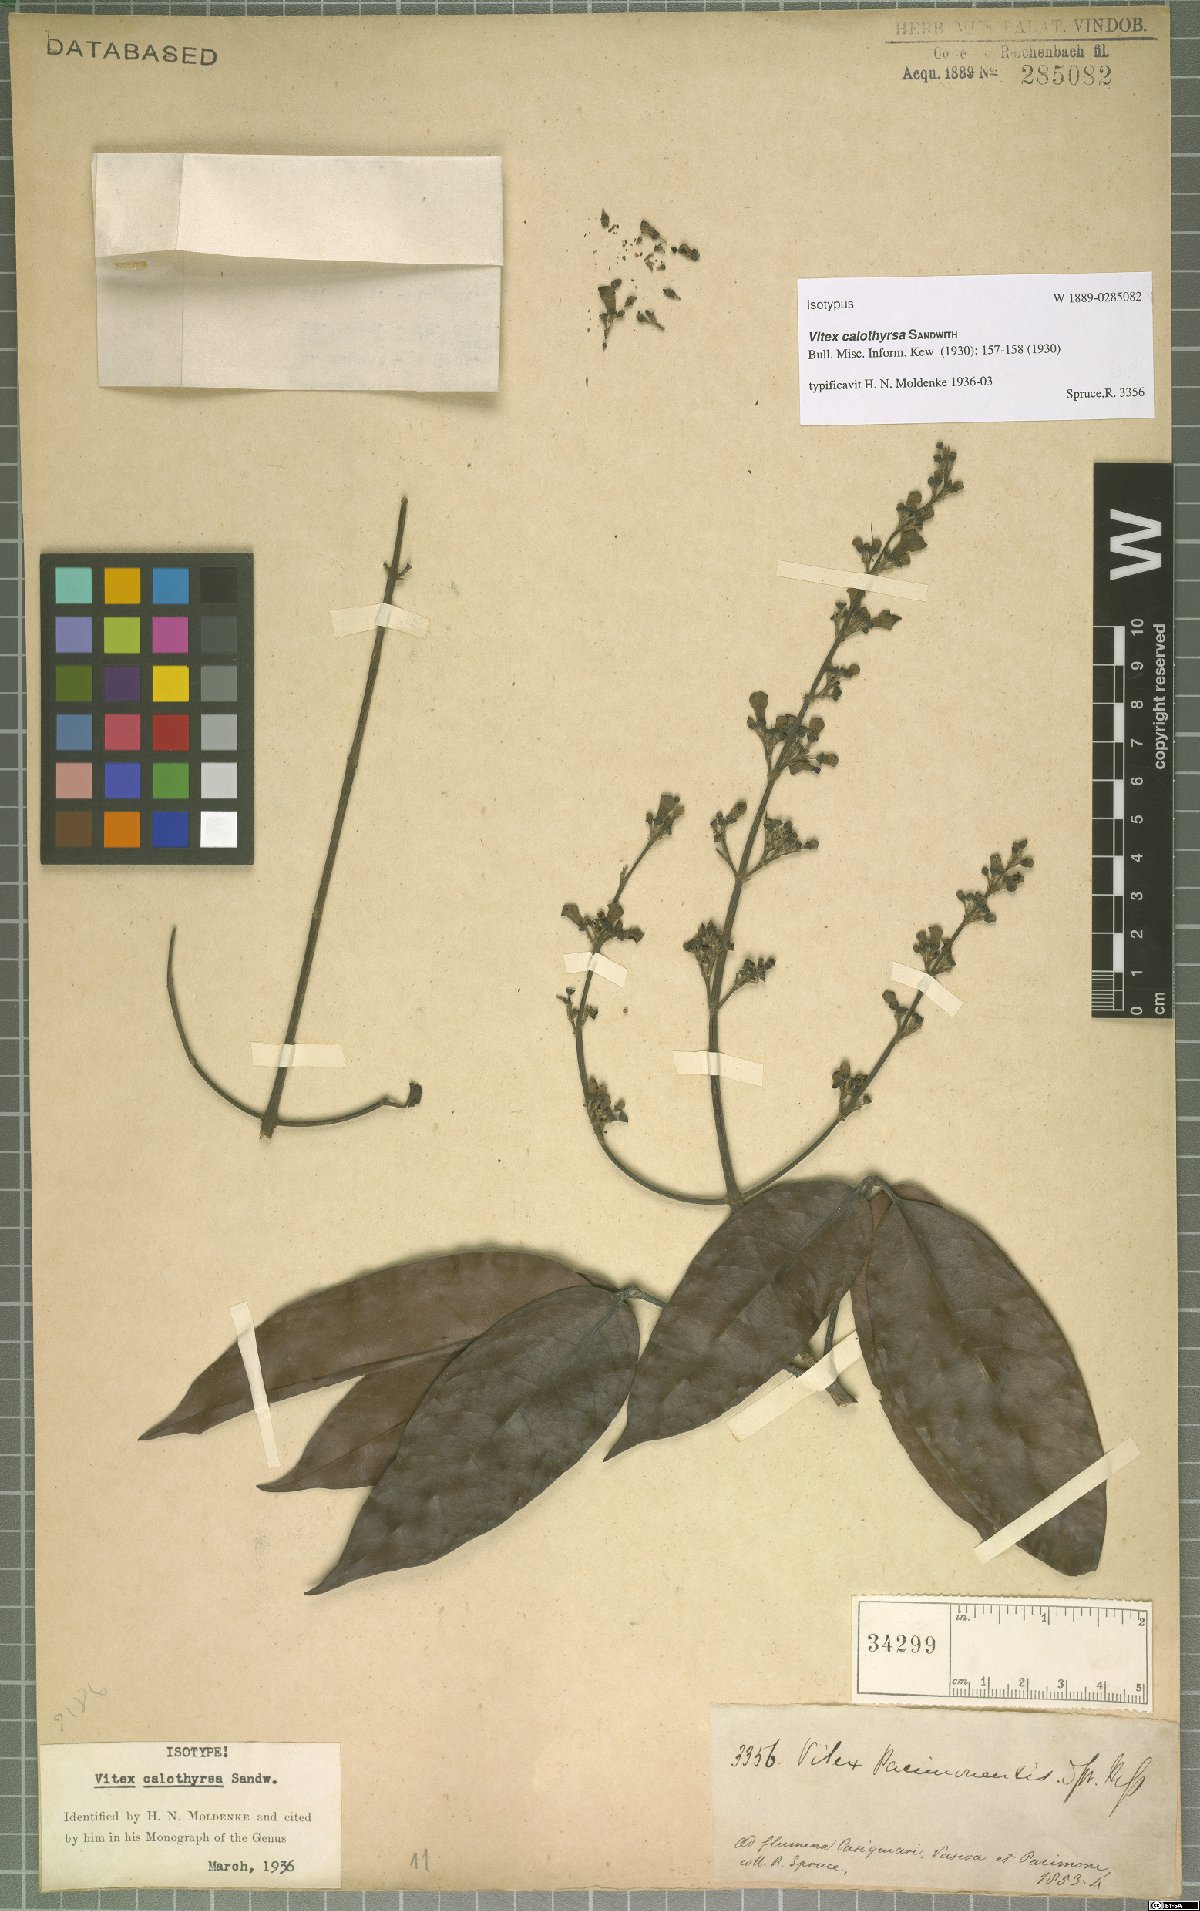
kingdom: Plantae
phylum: Tracheophyta
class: Magnoliopsida
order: Lamiales
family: Lamiaceae
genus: Vitex
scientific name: Vitex calothyrsa
